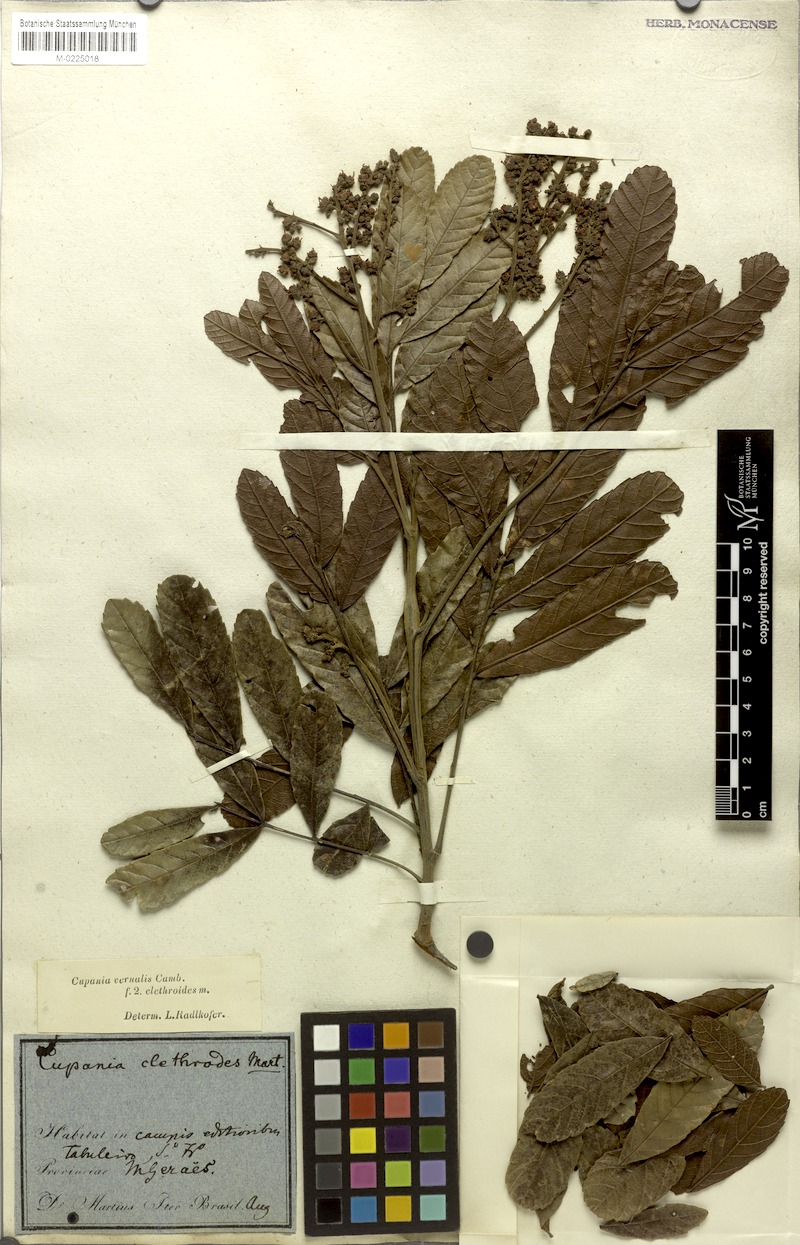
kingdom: Plantae
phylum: Tracheophyta
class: Magnoliopsida
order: Sapindales
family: Sapindaceae
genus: Cupania
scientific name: Cupania vernalis
